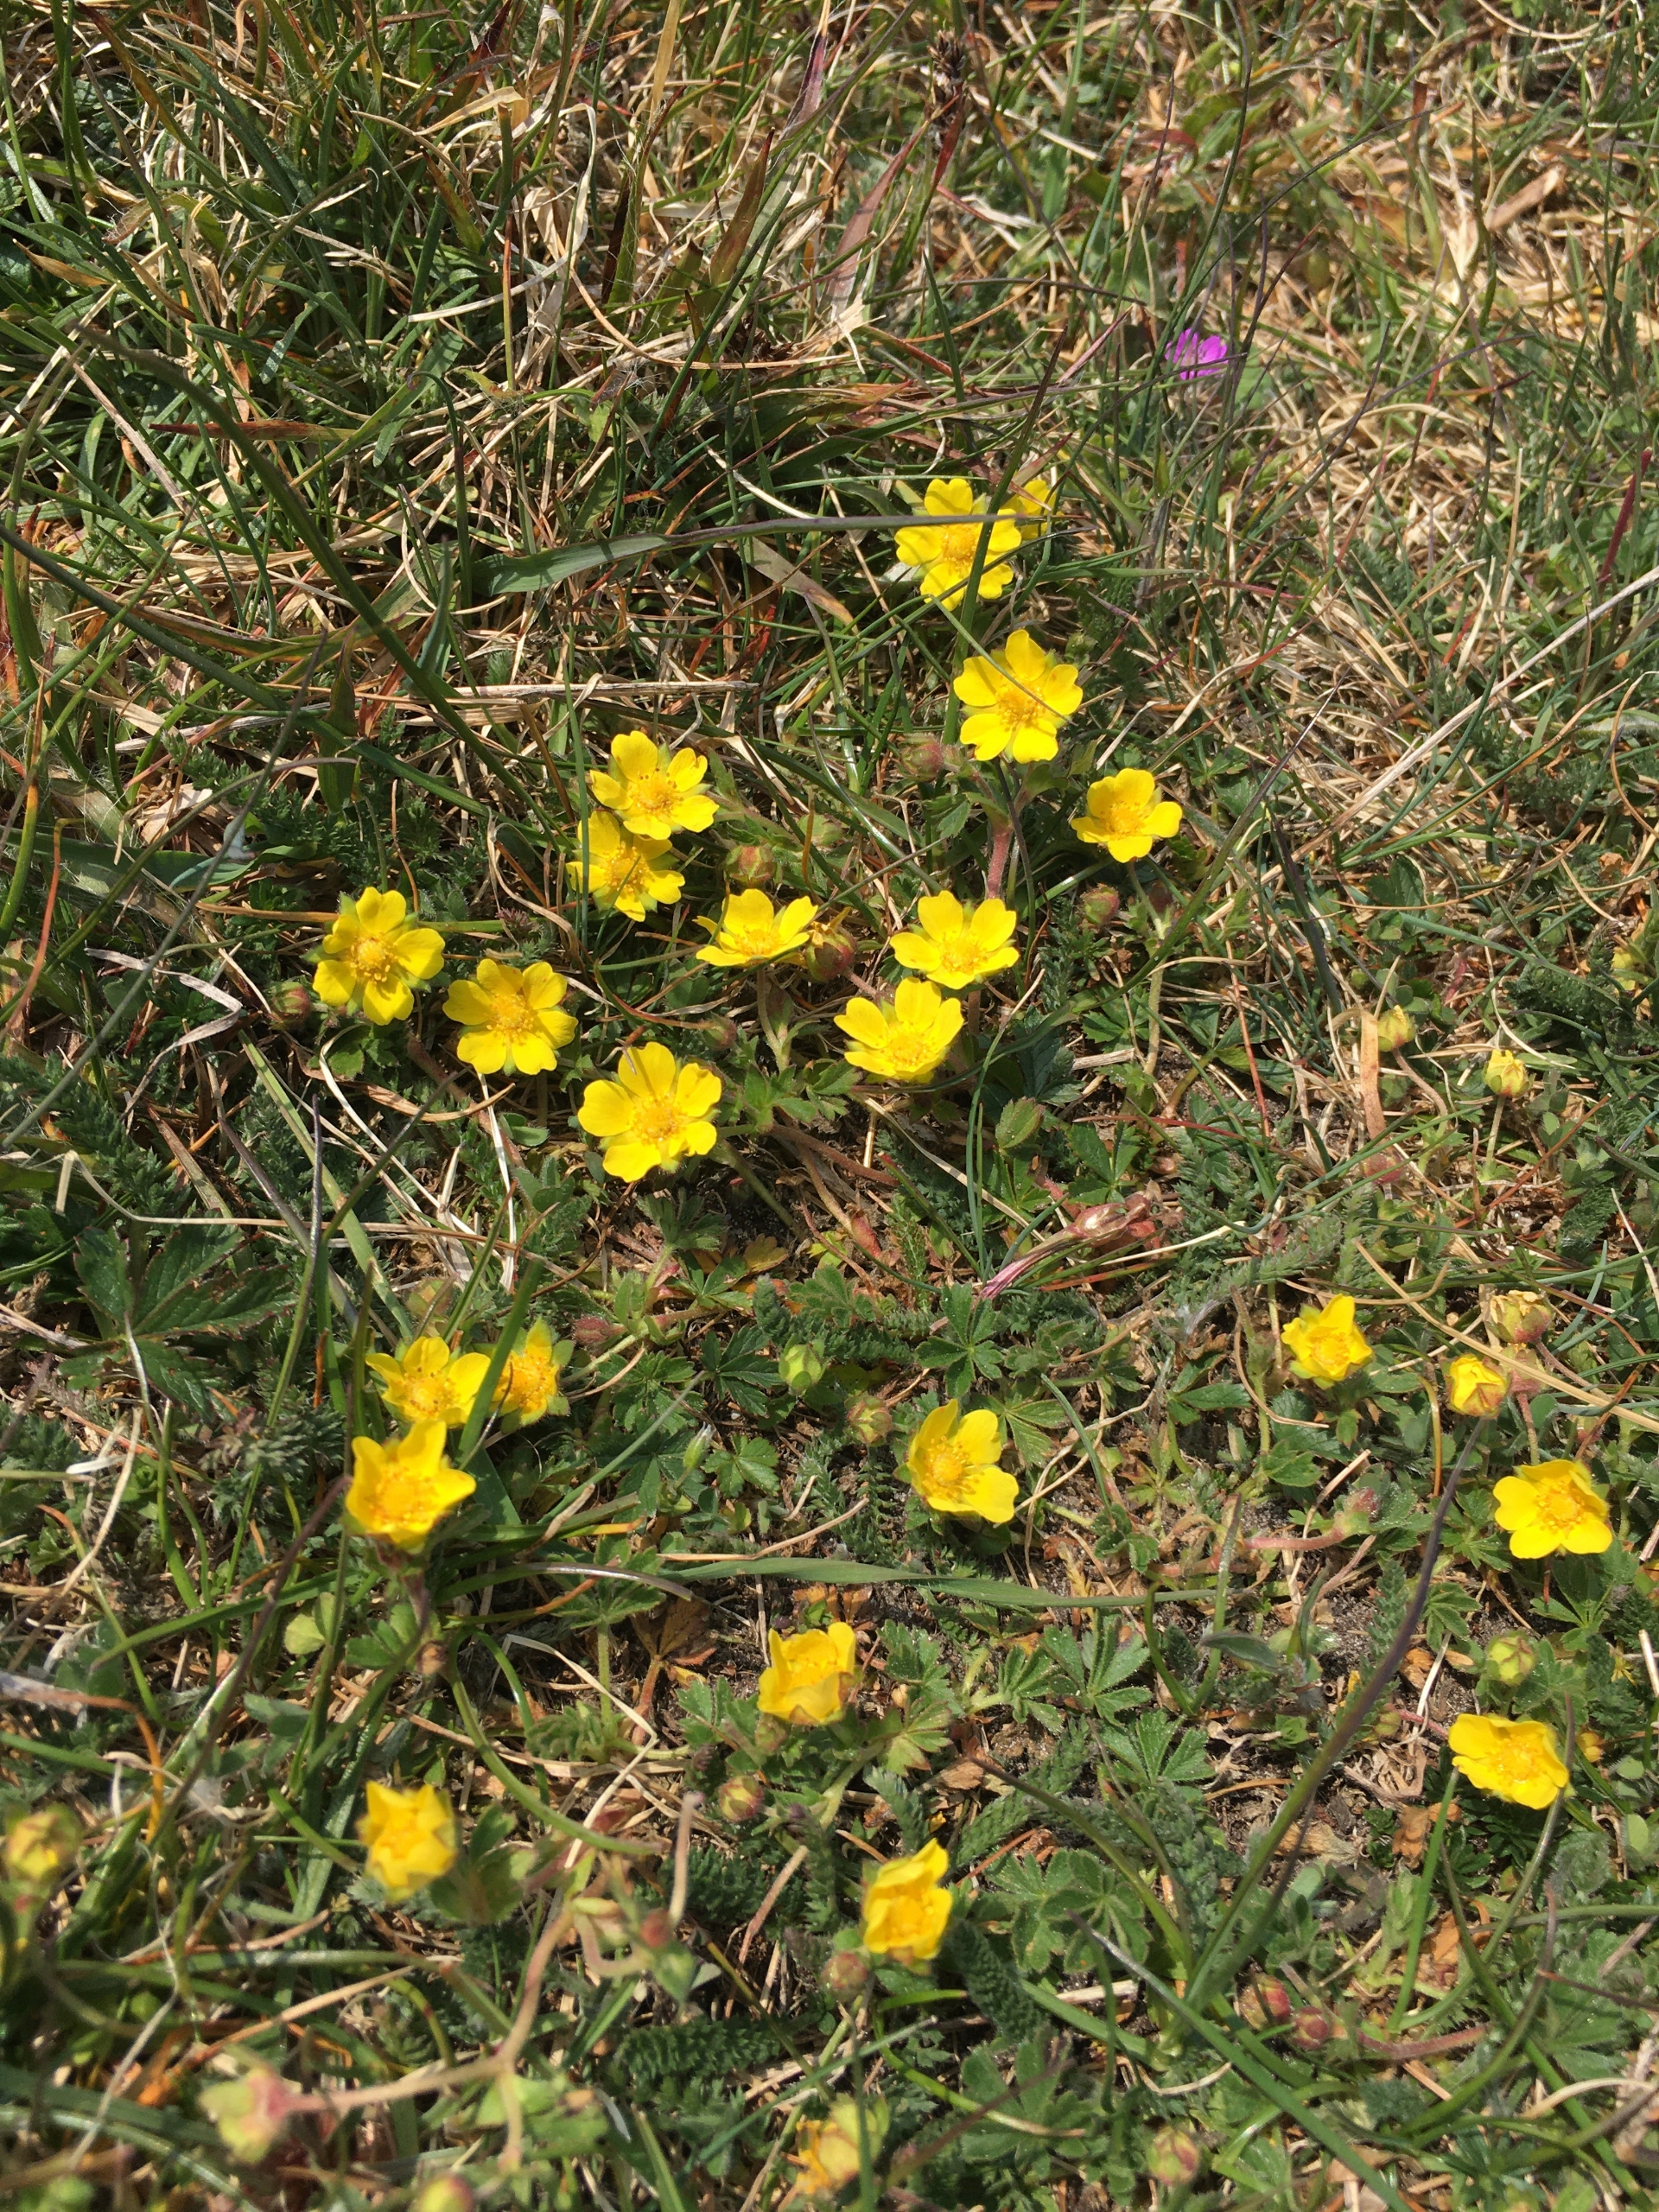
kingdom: Plantae
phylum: Tracheophyta
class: Magnoliopsida
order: Rosales
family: Rosaceae
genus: Potentilla
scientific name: Potentilla subarenaria
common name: Grå vår-potentil
